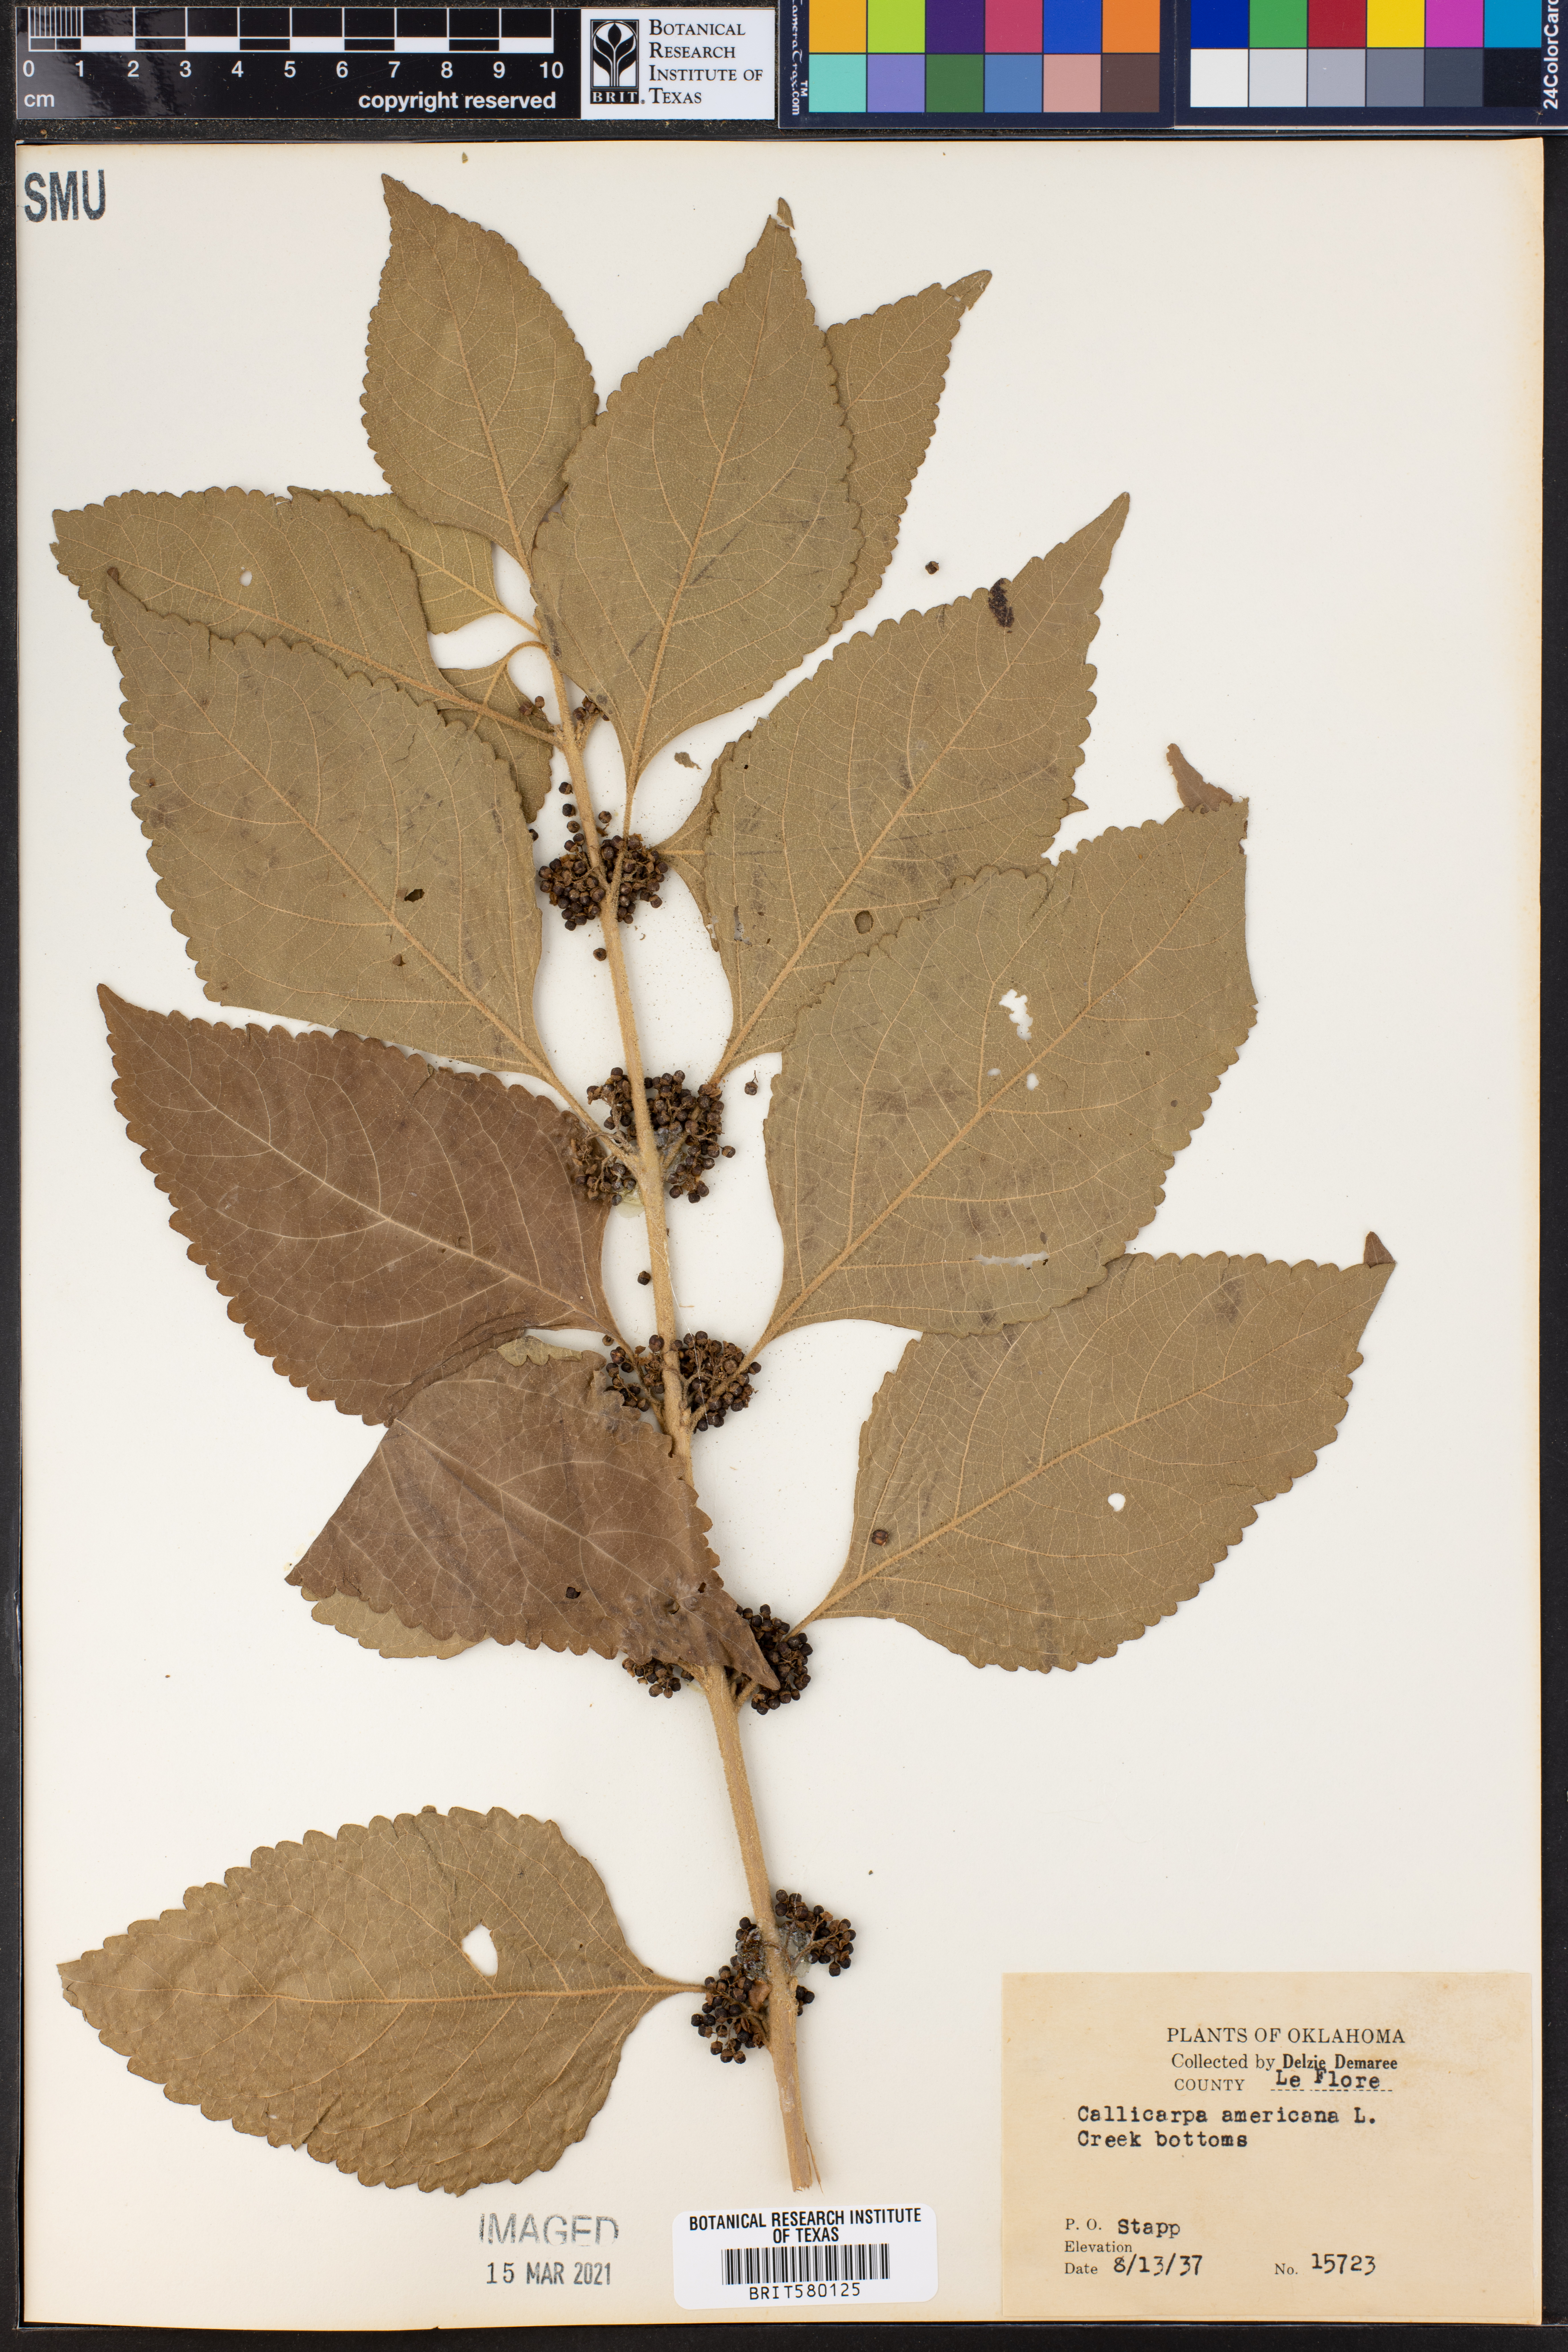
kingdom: Plantae
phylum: Tracheophyta
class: Magnoliopsida
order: Lamiales
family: Lamiaceae
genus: Callicarpa
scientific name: Callicarpa americana
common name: American beautyberry
